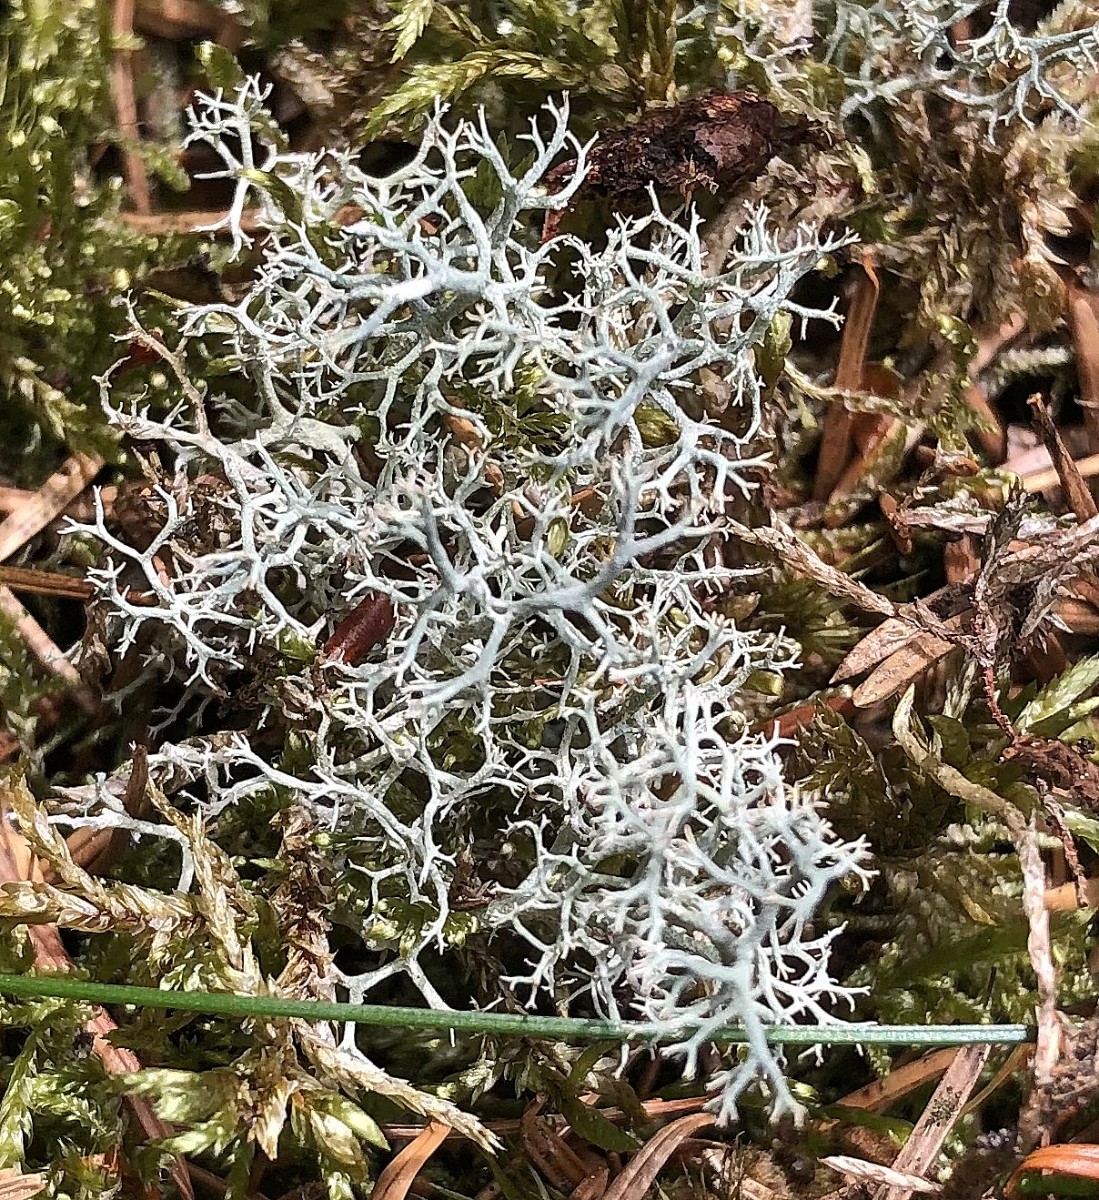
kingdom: Fungi
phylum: Ascomycota
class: Lecanoromycetes
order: Lecanorales
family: Cladoniaceae
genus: Cladonia
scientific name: Cladonia portentosa
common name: hede-rensdyrlav
